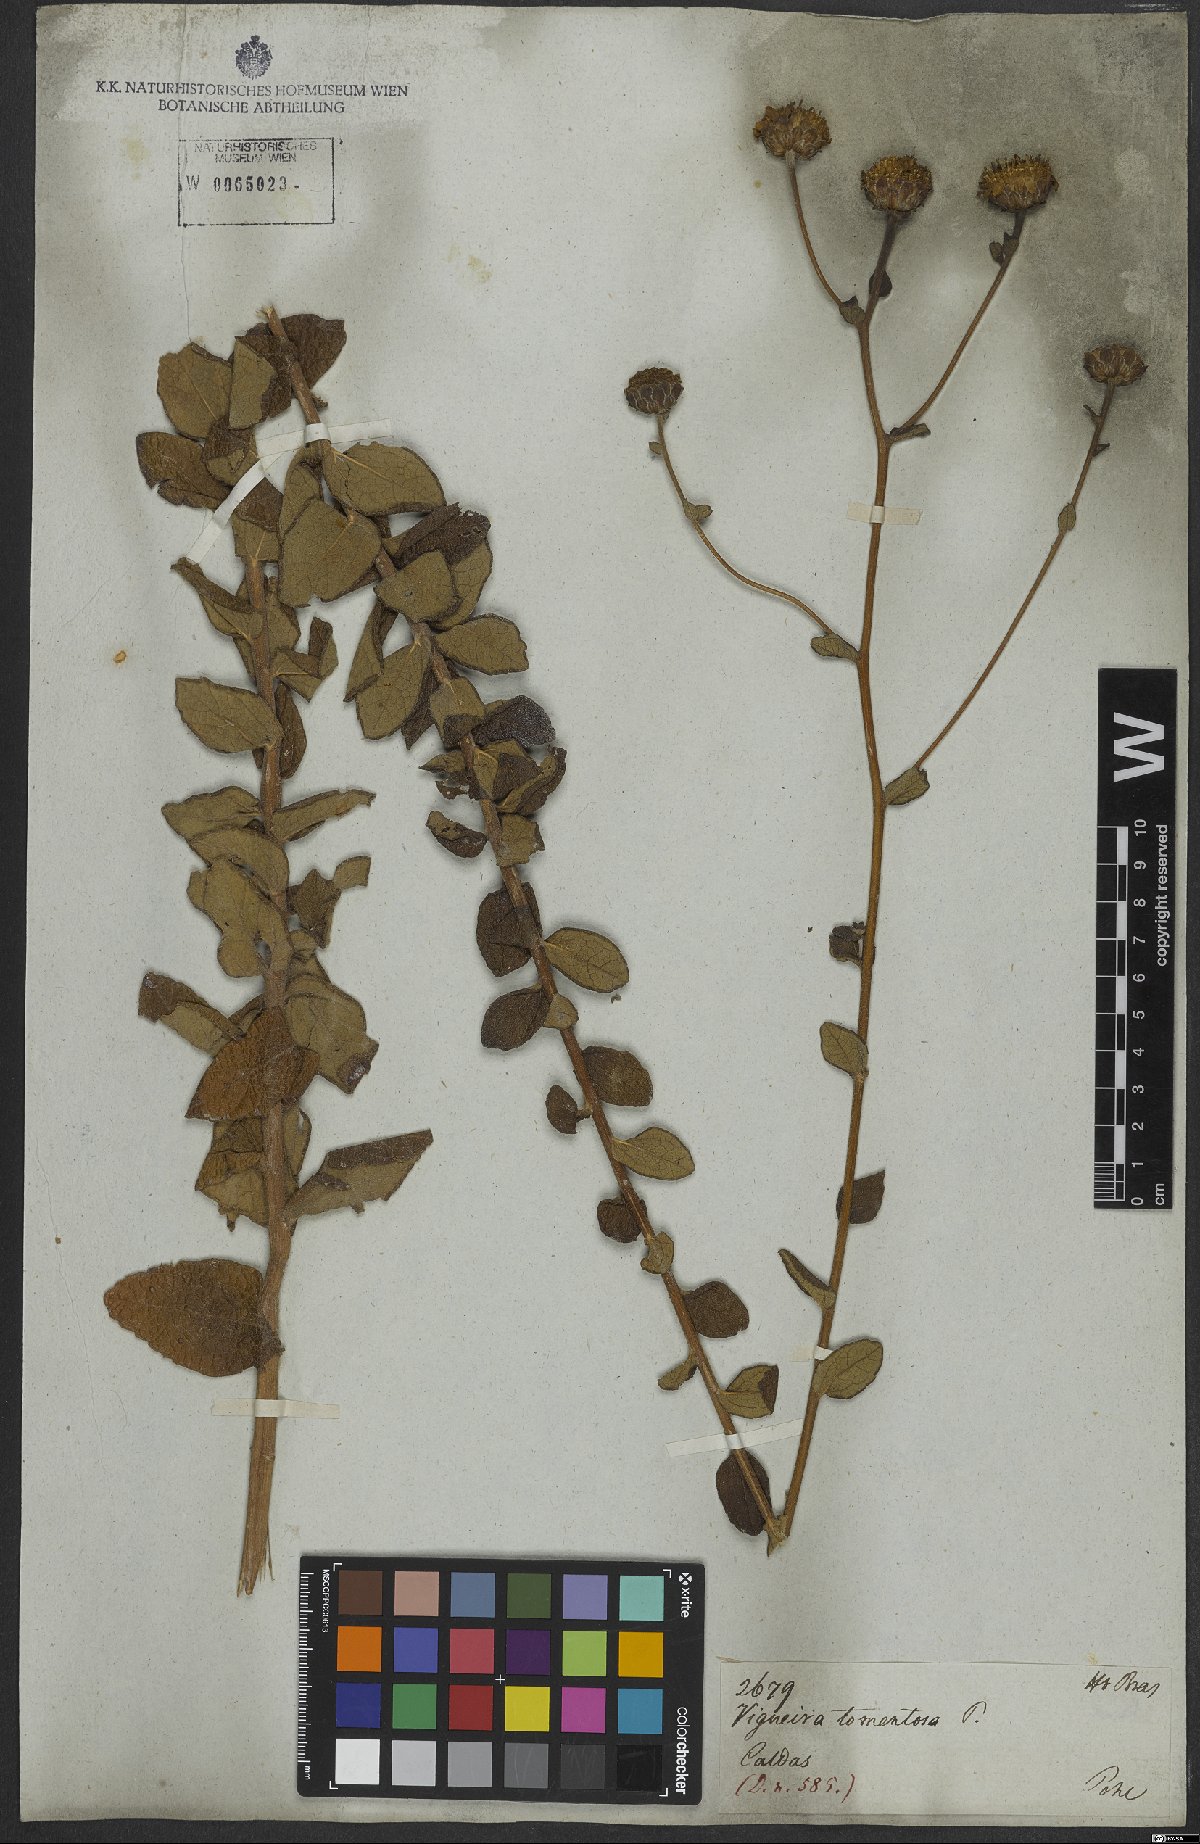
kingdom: Plantae
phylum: Tracheophyta
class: Magnoliopsida
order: Asterales
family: Asteraceae
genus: Aldama
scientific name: Aldama robusta
